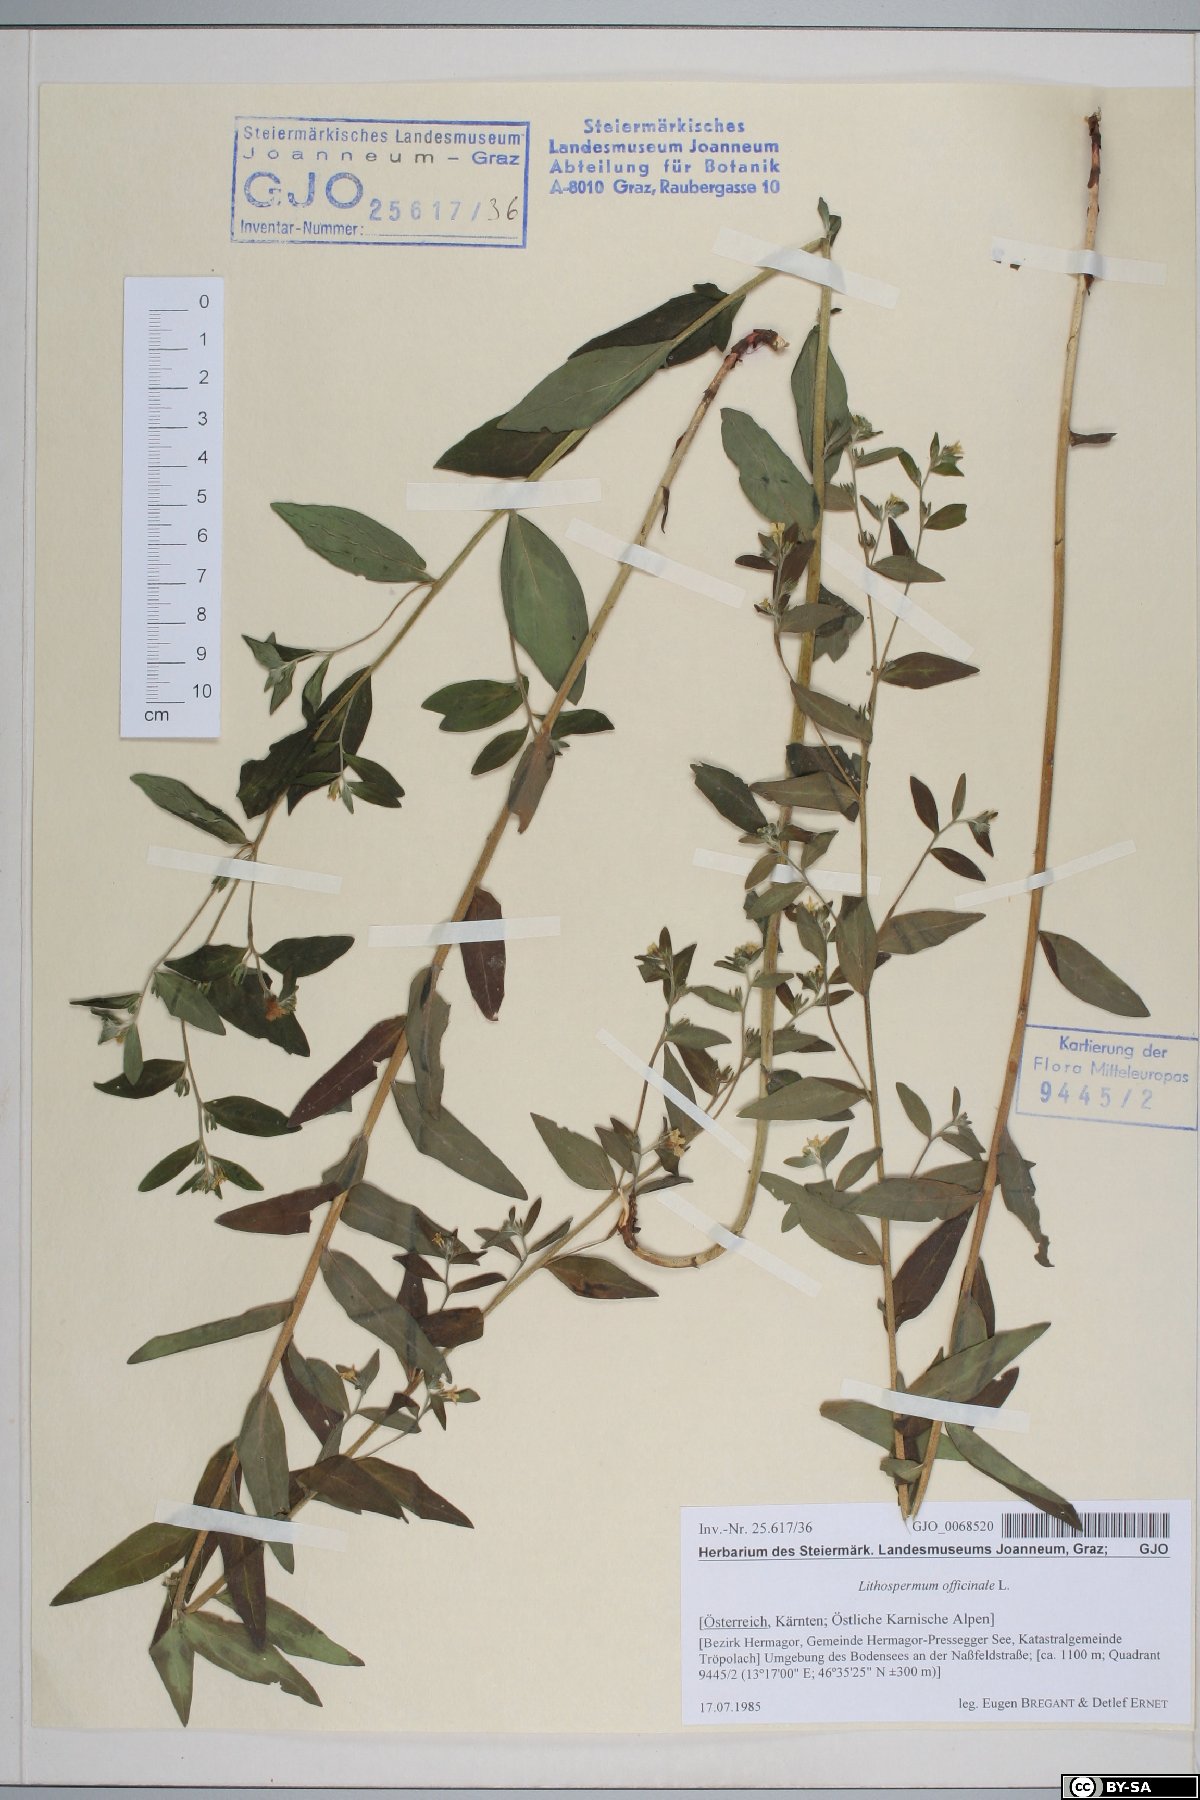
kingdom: Plantae
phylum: Tracheophyta
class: Magnoliopsida
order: Boraginales
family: Boraginaceae
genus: Lithospermum
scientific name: Lithospermum officinale
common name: Common gromwell
